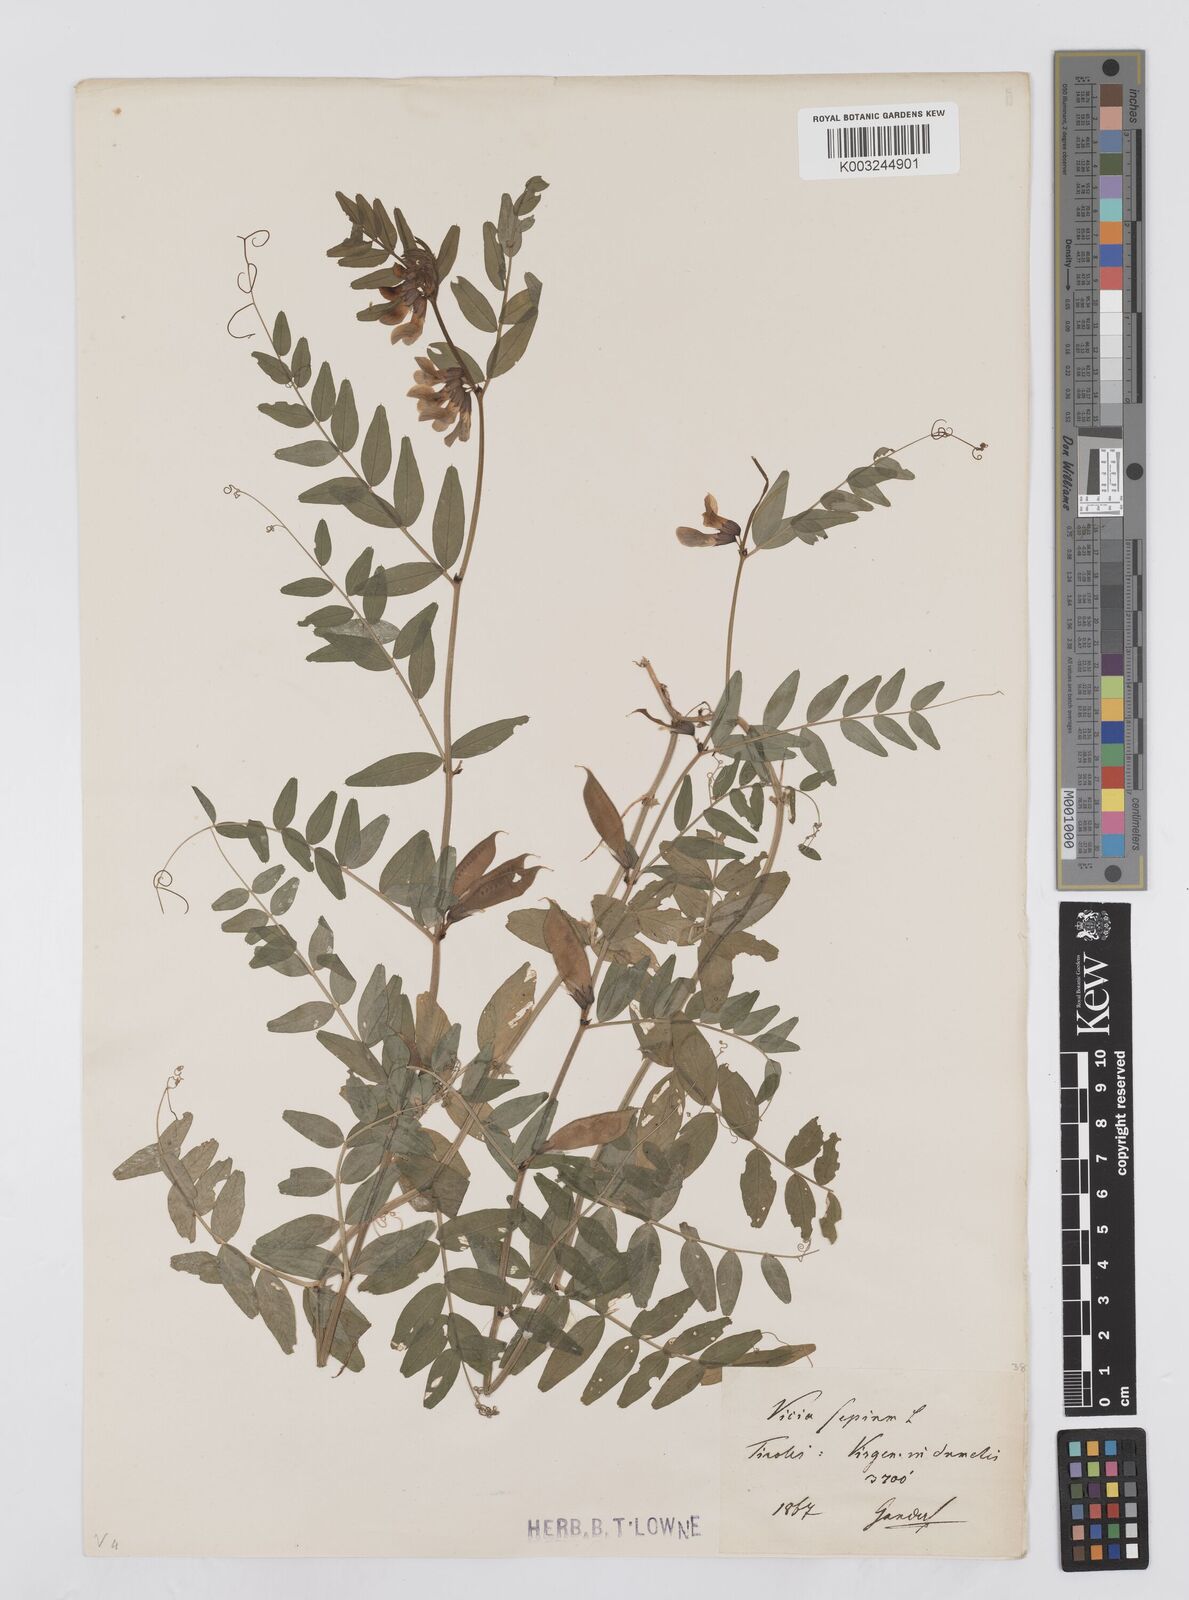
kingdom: Plantae
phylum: Tracheophyta
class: Magnoliopsida
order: Fabales
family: Fabaceae
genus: Vicia
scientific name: Vicia sepium
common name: Bush vetch
